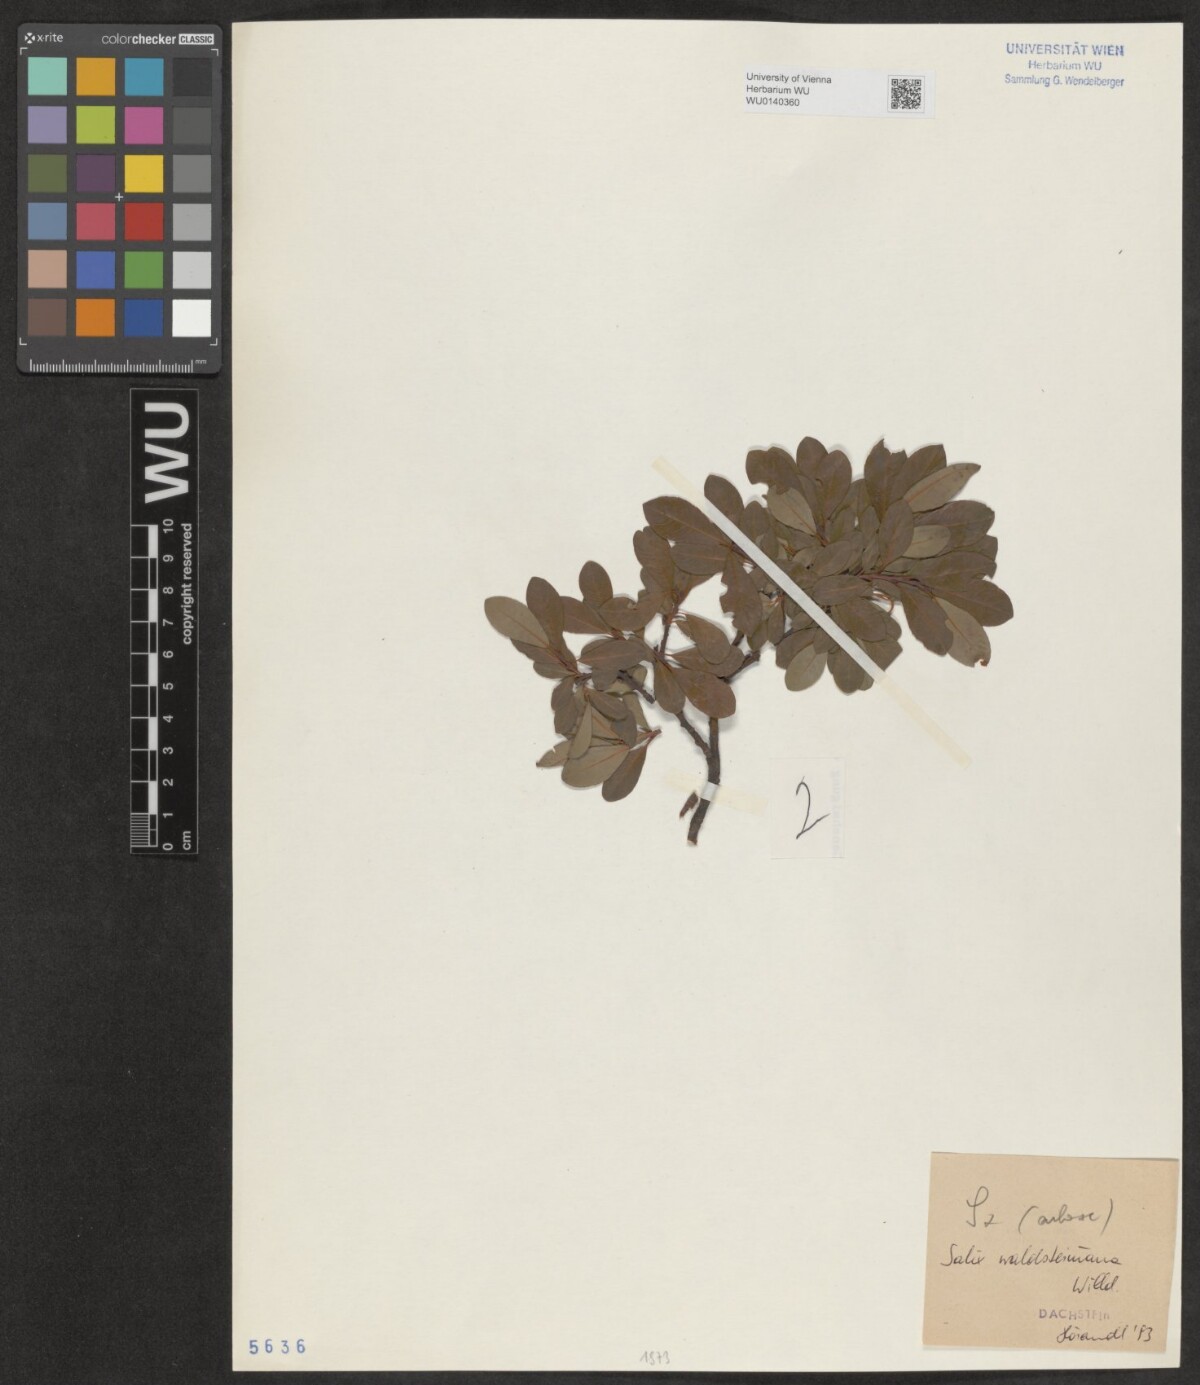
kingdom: Plantae
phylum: Tracheophyta
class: Magnoliopsida
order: Malpighiales
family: Salicaceae
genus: Salix
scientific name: Salix waldsteiniana
